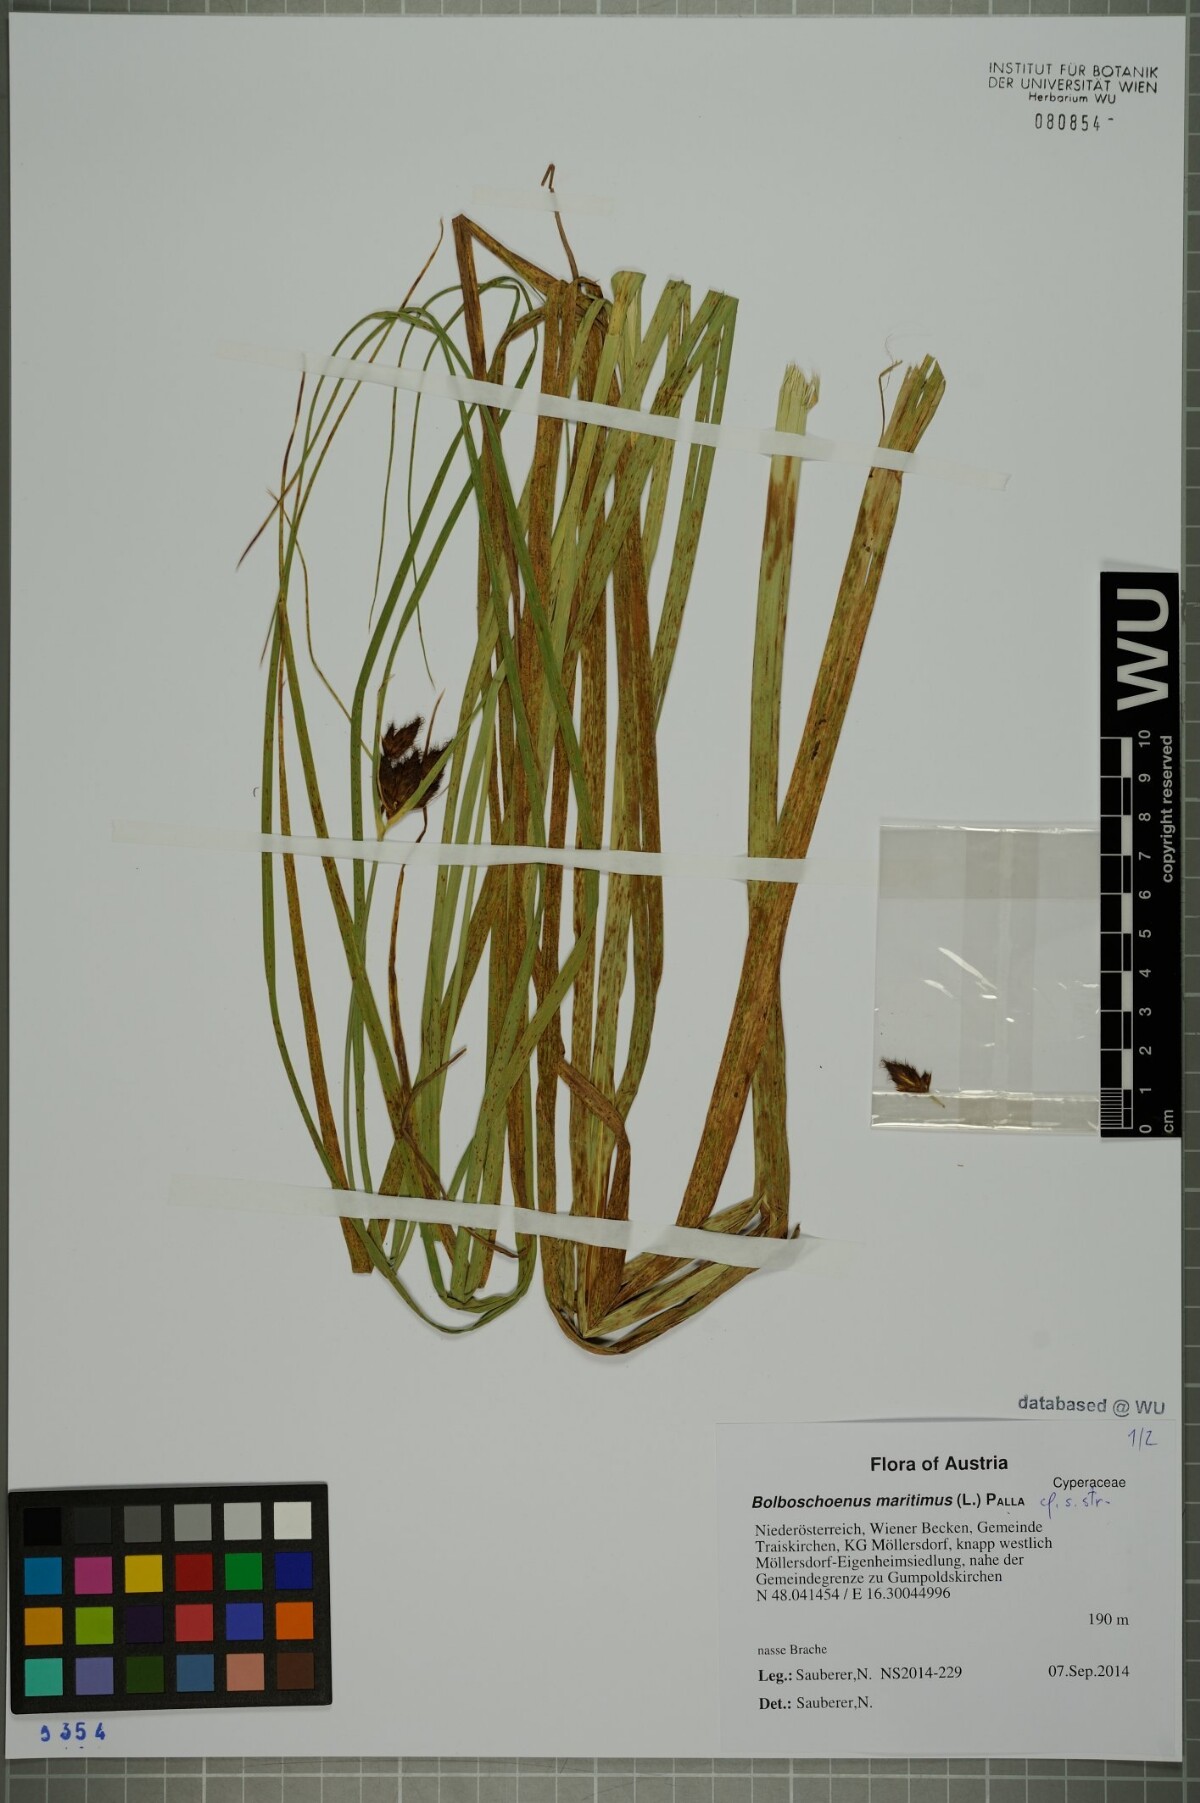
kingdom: Plantae
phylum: Tracheophyta
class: Liliopsida
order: Poales
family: Cyperaceae
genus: Bolboschoenus
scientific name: Bolboschoenus maritimus
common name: Sea club-rush
